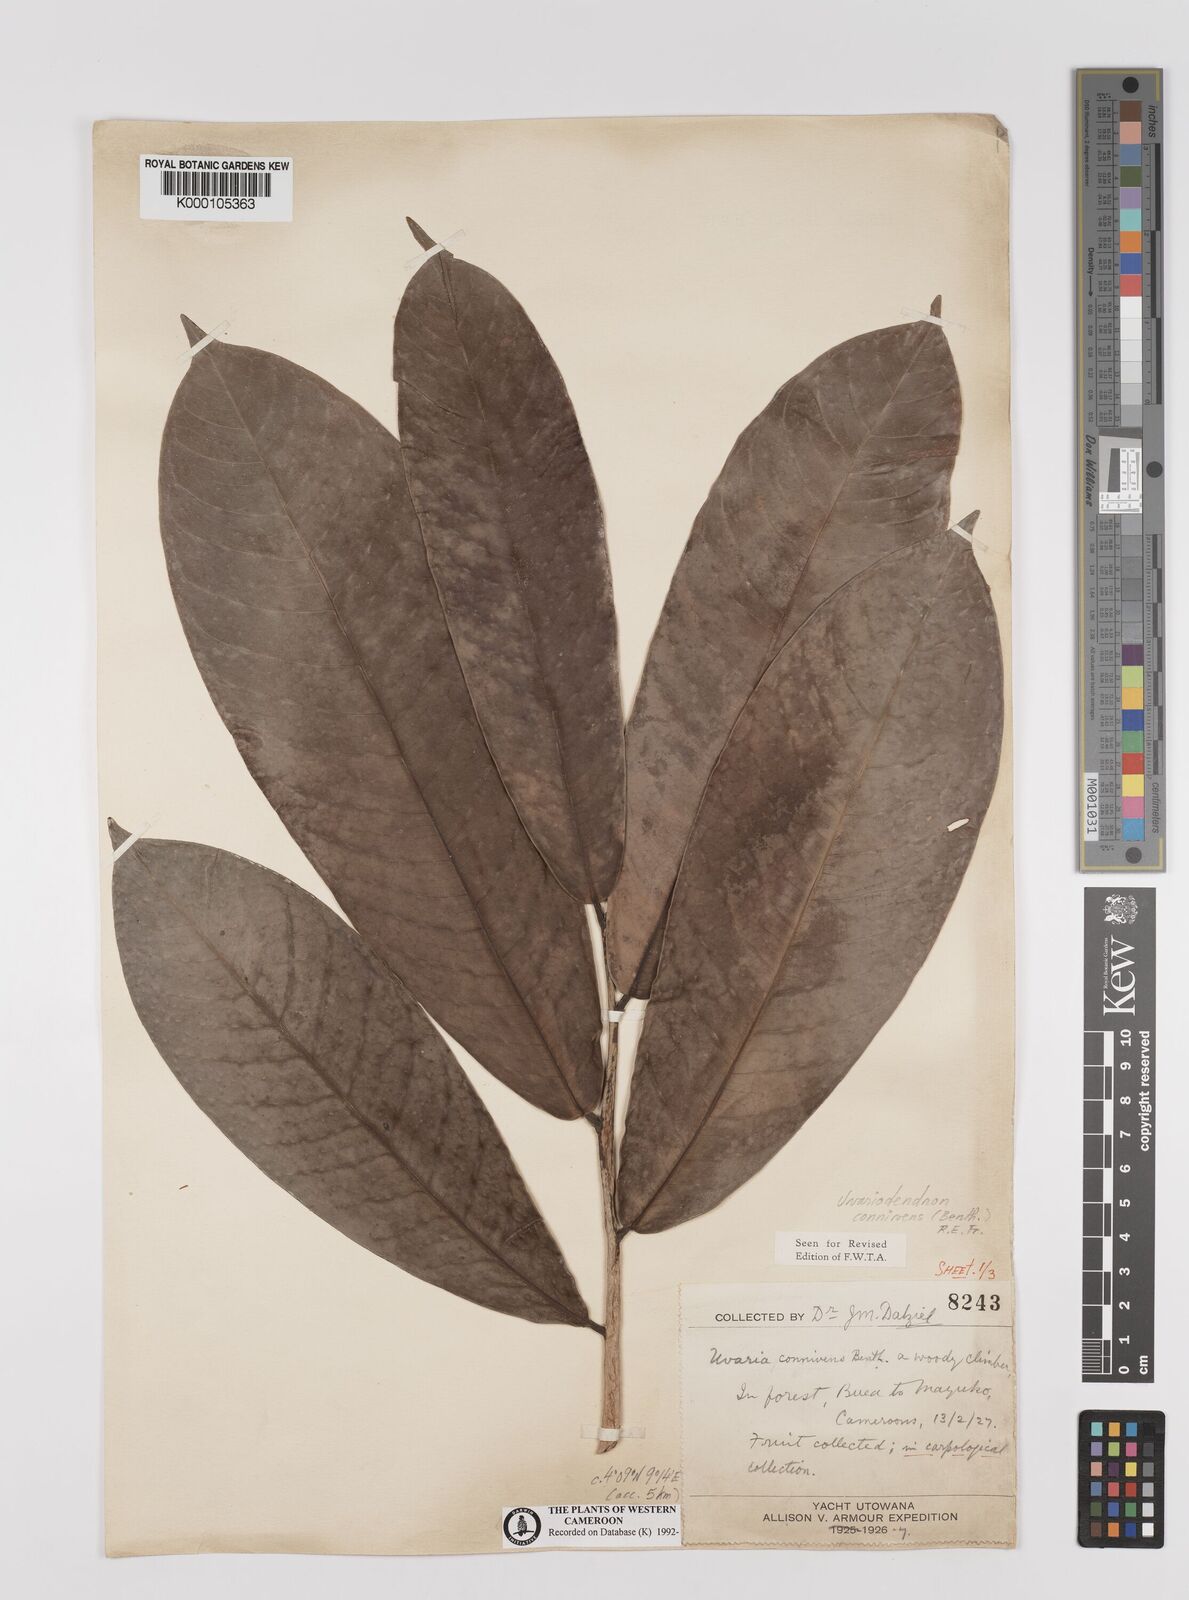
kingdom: Plantae
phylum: Tracheophyta
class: Magnoliopsida
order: Magnoliales
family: Annonaceae
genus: Uvariodendron
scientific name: Uvariodendron connivens
